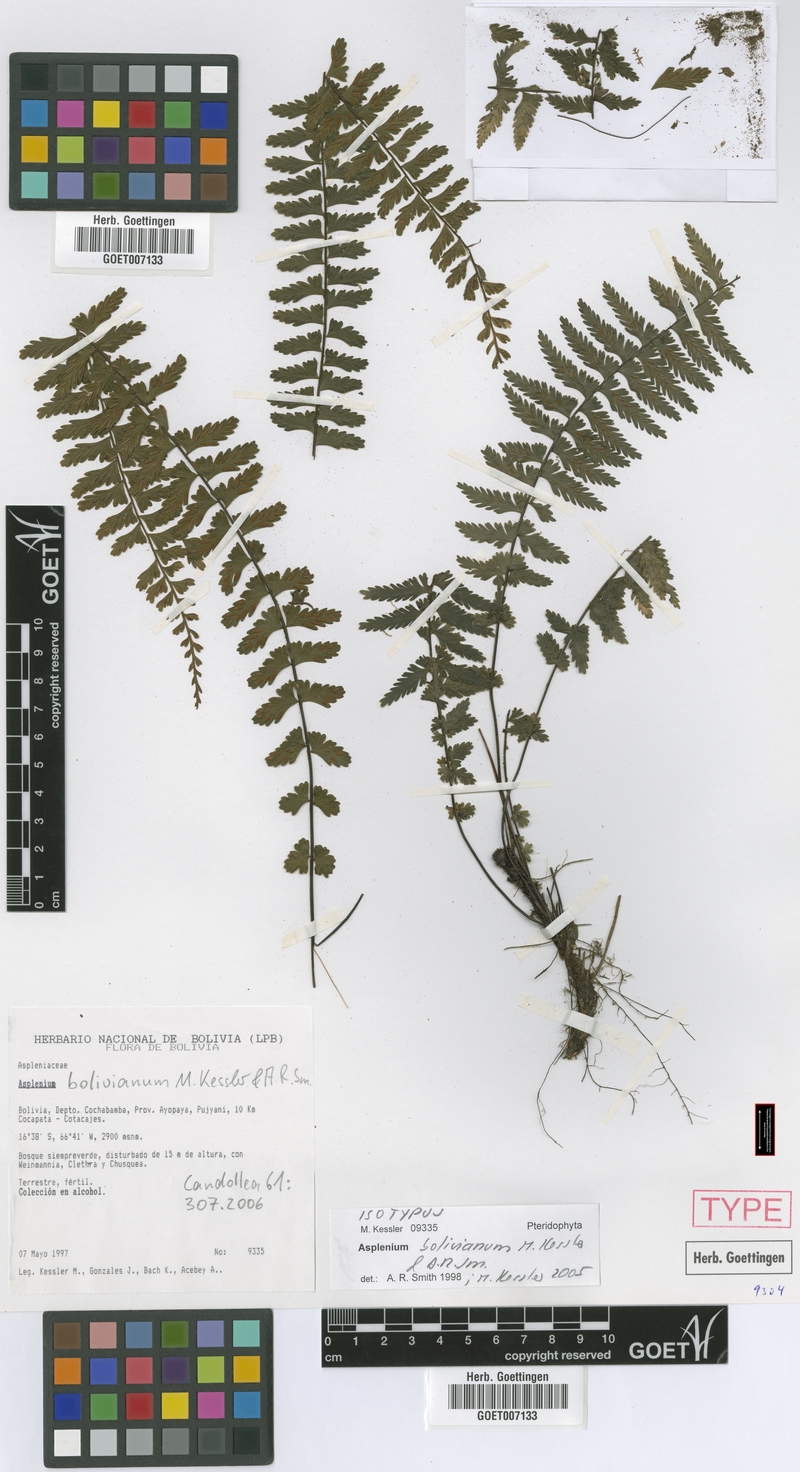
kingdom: Plantae
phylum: Tracheophyta
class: Polypodiopsida
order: Polypodiales
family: Aspleniaceae
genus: Asplenium
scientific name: Asplenium bolivianum
